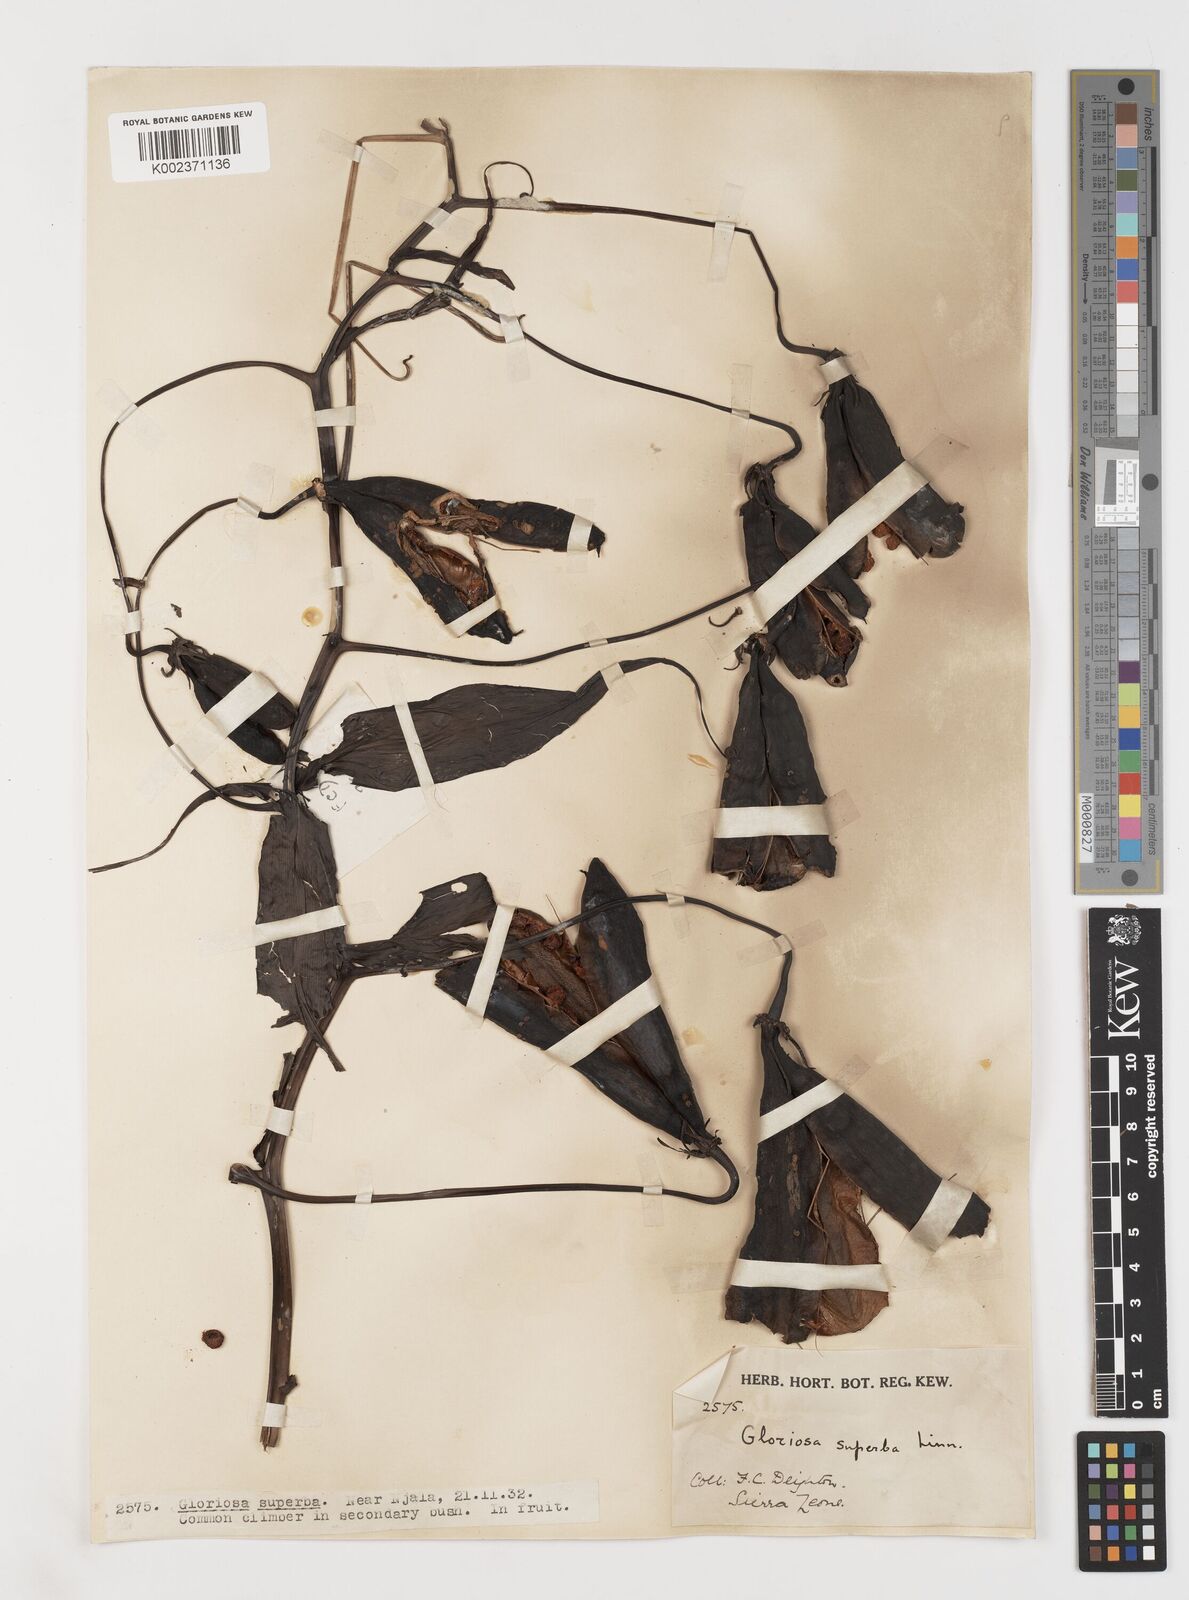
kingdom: Plantae
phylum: Tracheophyta
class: Liliopsida
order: Liliales
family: Colchicaceae
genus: Gloriosa
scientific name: Gloriosa simplex
